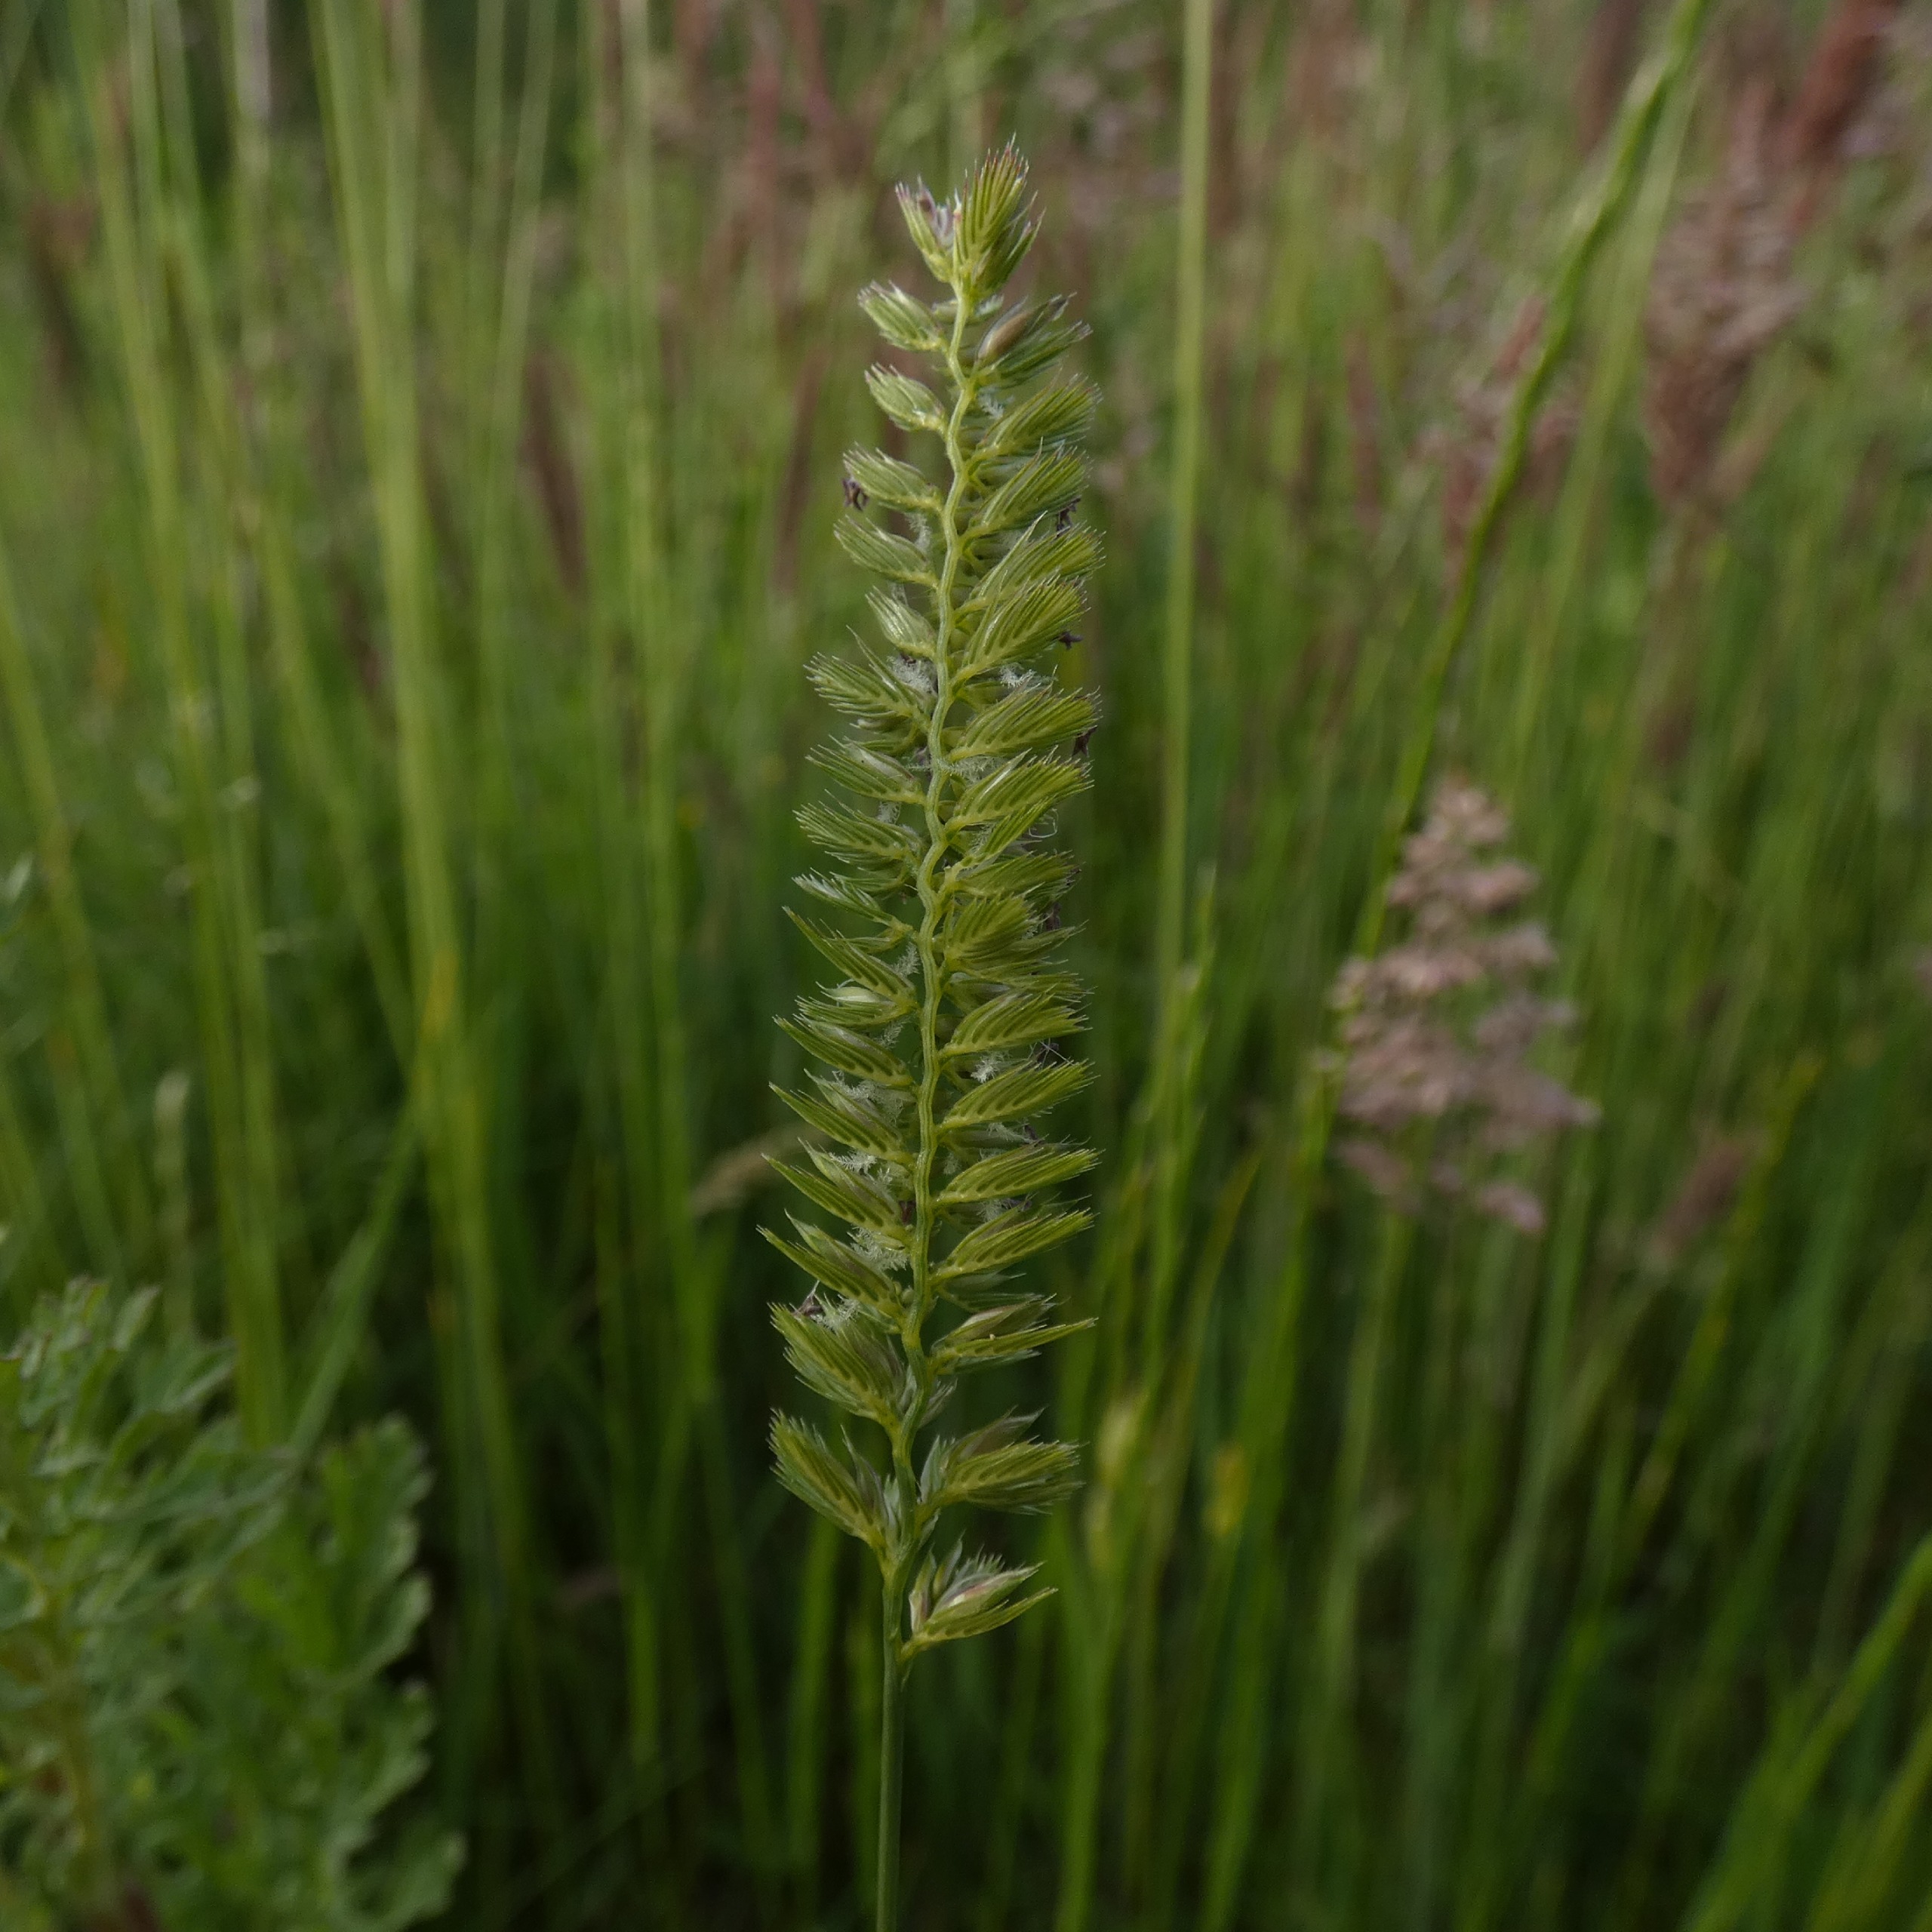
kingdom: Plantae
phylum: Tracheophyta
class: Liliopsida
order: Poales
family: Poaceae
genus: Cynosurus
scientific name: Cynosurus cristatus
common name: Kamgræs
